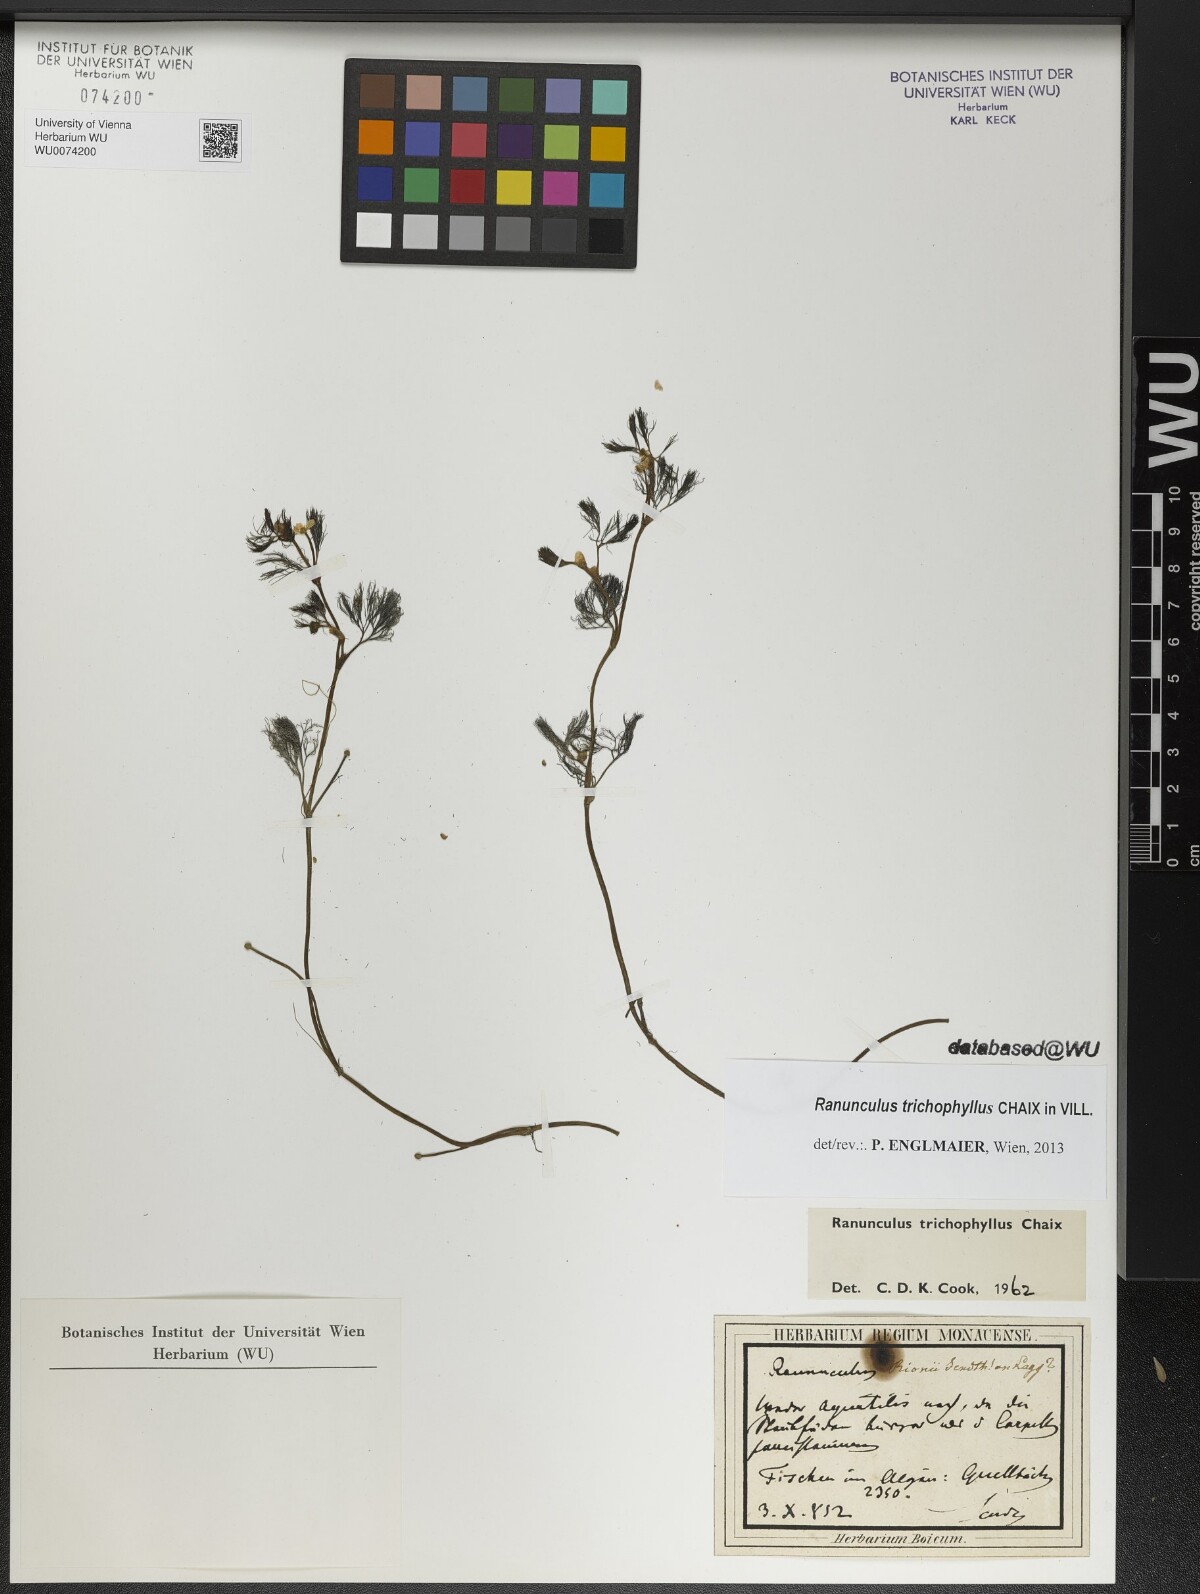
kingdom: Plantae
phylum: Tracheophyta
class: Magnoliopsida
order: Ranunculales
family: Ranunculaceae
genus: Ranunculus
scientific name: Ranunculus trichophyllus
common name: Thread-leaved water-crowfoot
